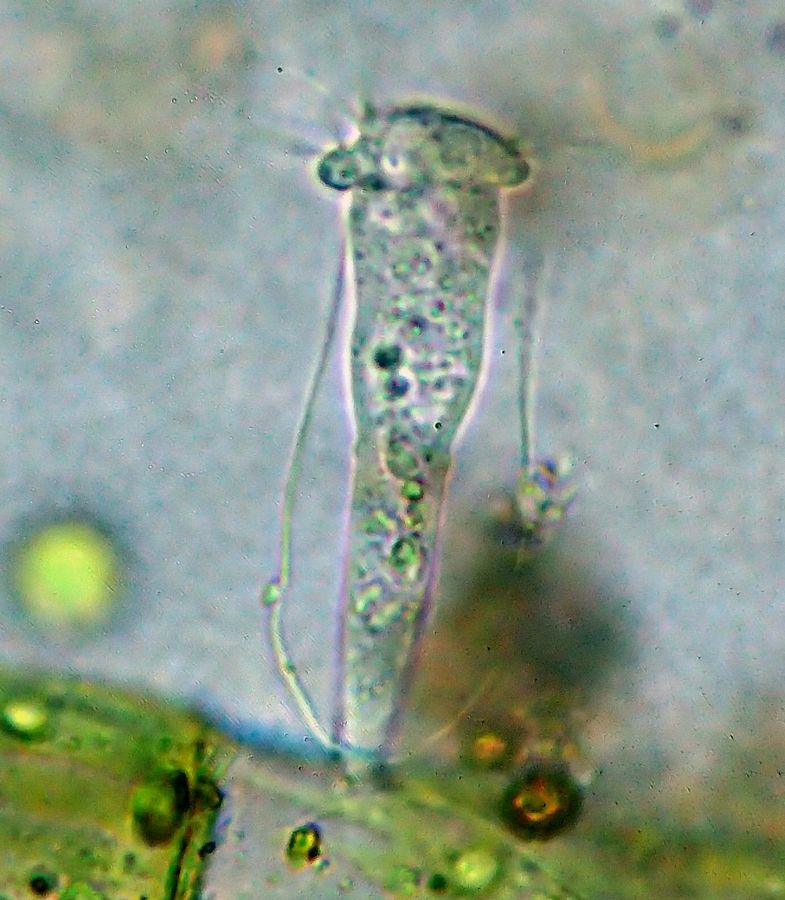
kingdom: Chromista
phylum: Ciliophora
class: Oligohymenophorea
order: Peritrichida
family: Vaginicolidae
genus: Cothurnia
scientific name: Cothurnia annulata
